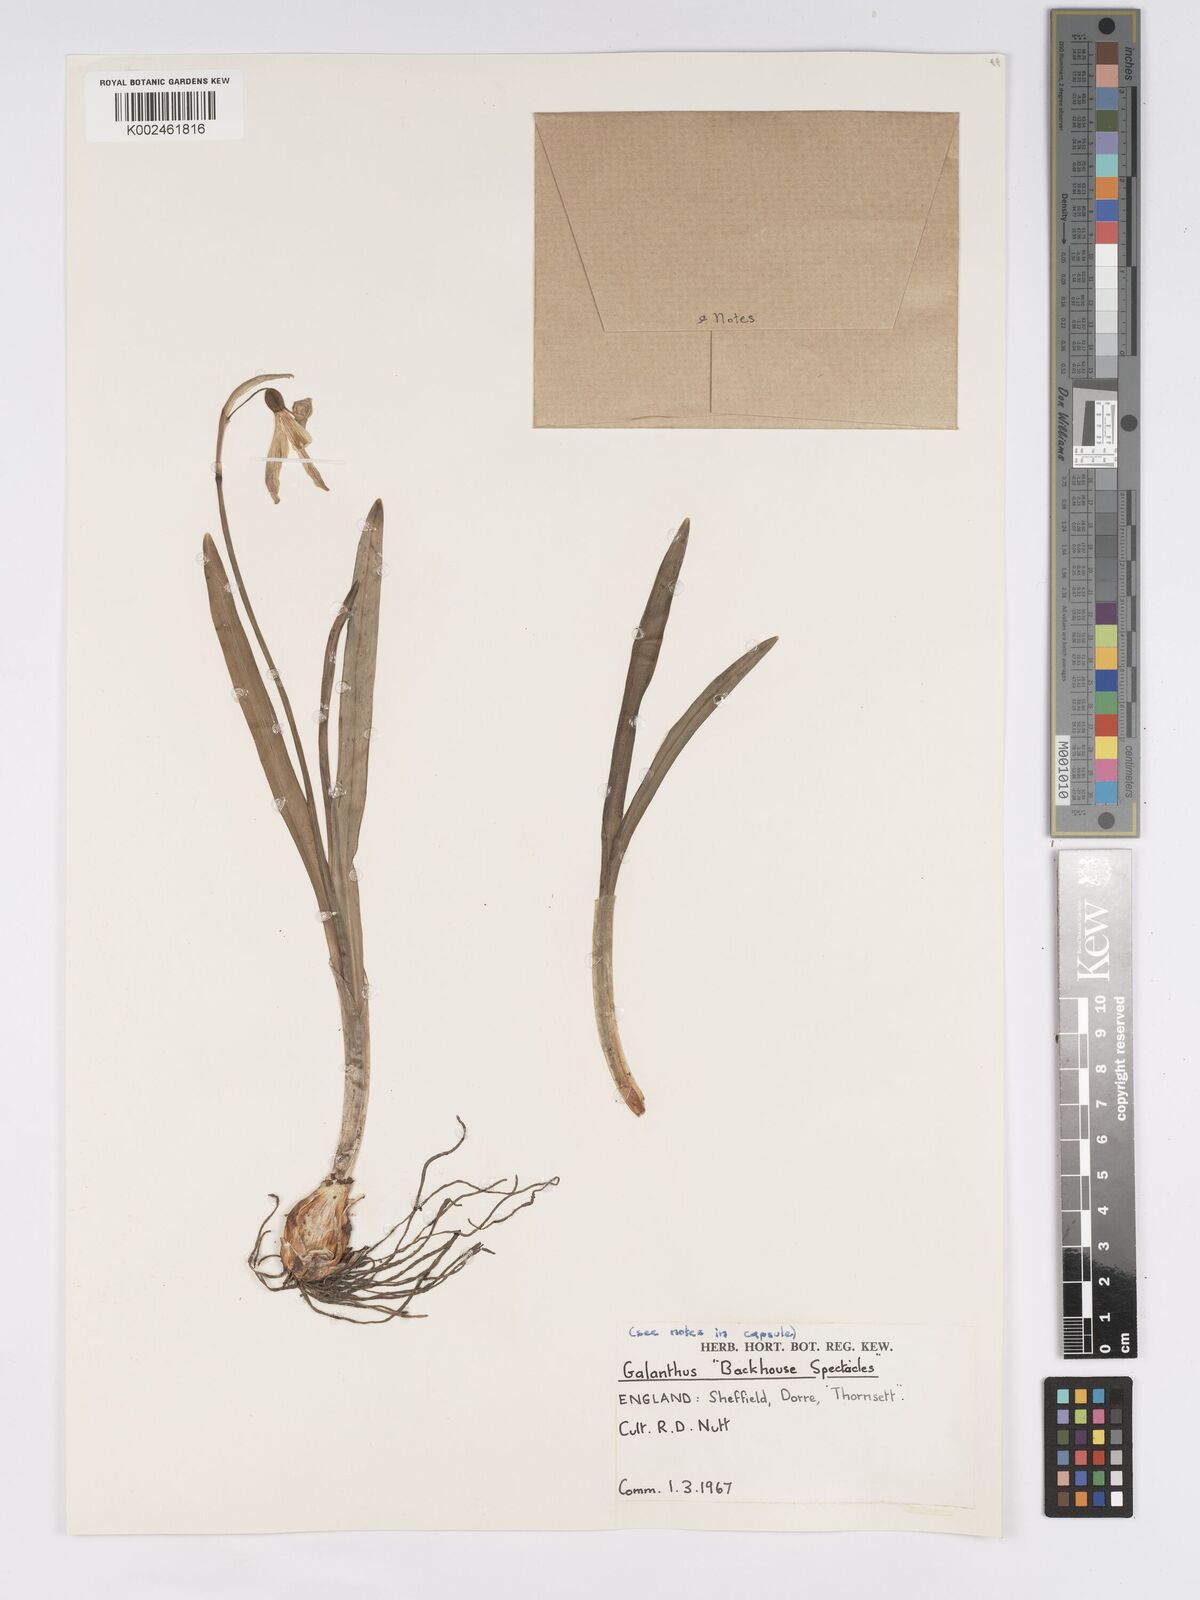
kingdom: Plantae
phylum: Tracheophyta
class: Liliopsida
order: Asparagales
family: Amaryllidaceae
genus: Galanthus
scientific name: Galanthus
